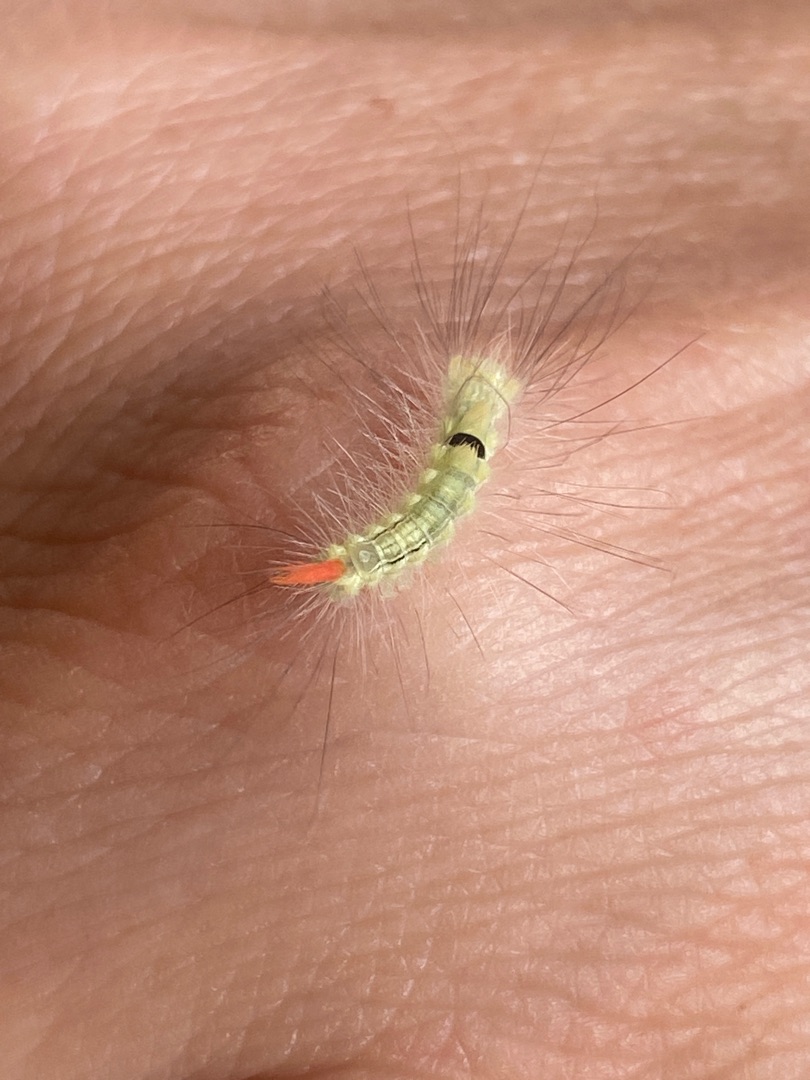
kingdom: Animalia
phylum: Arthropoda
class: Insecta
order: Lepidoptera
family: Erebidae
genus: Calliteara
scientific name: Calliteara pudibunda
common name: Bøgenonne
